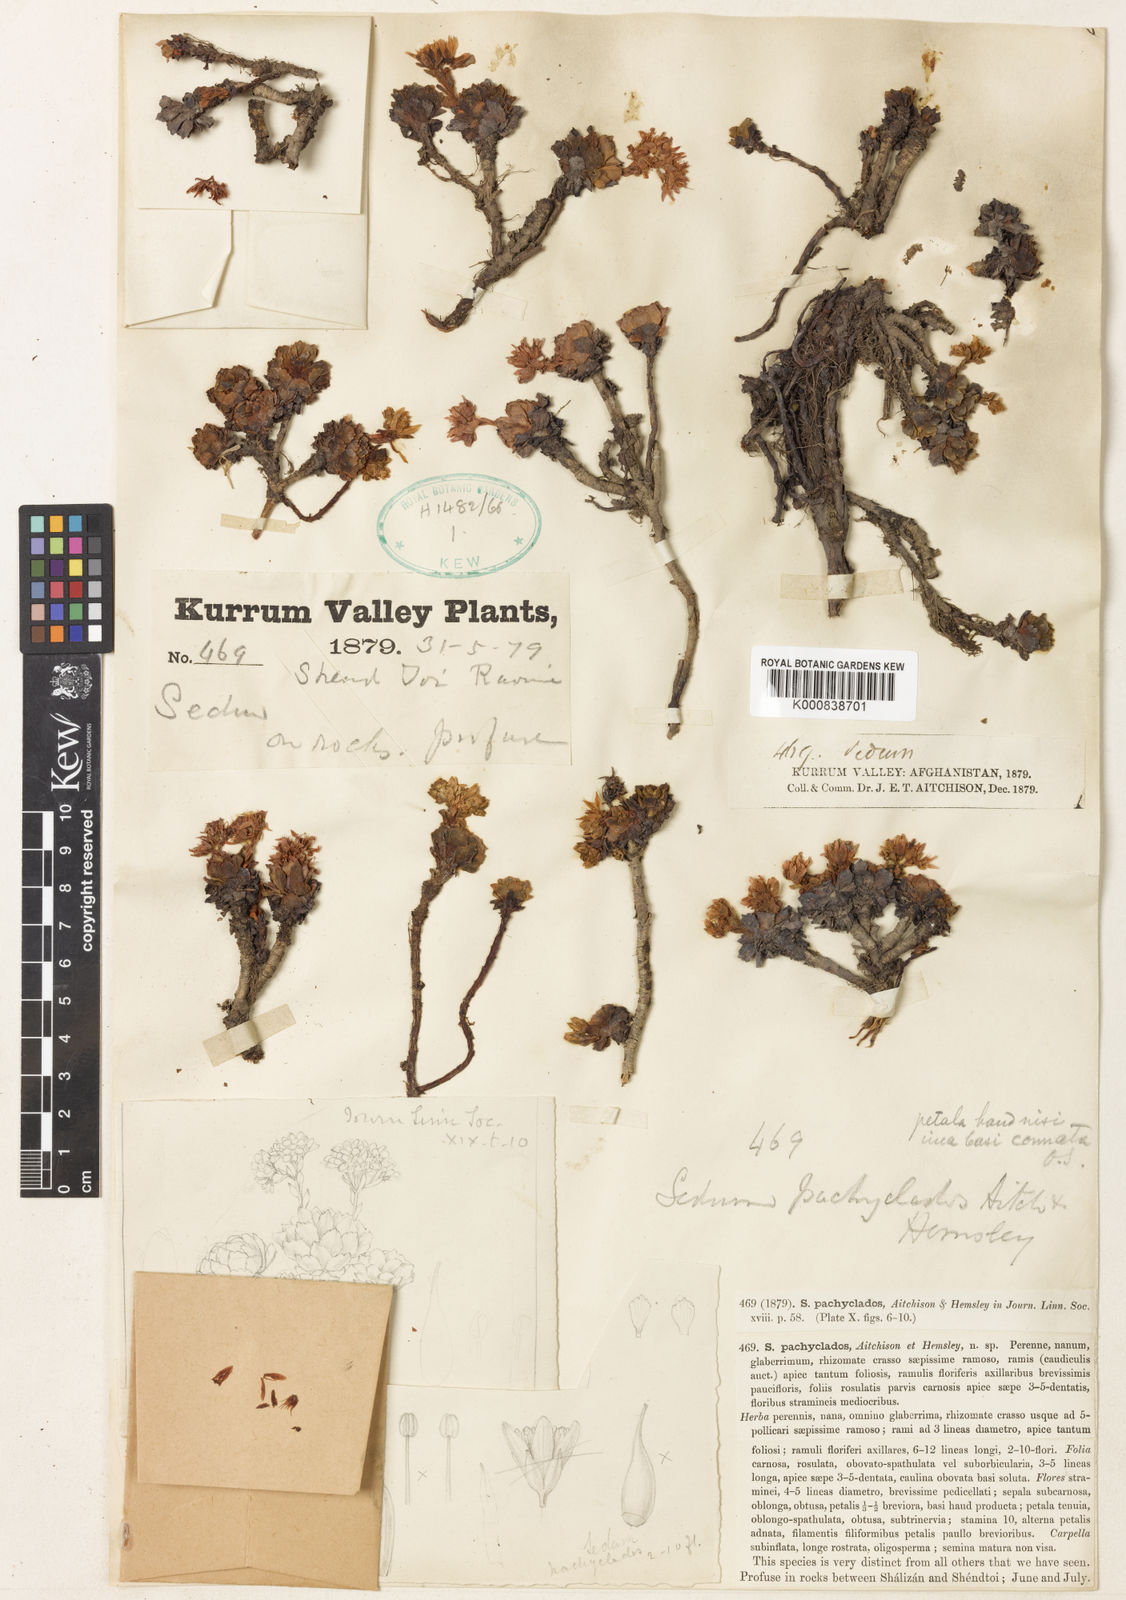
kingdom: Plantae
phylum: Tracheophyta
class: Magnoliopsida
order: Saxifragales
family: Crassulaceae
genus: Rhodiola
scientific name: Rhodiola pachyclados
